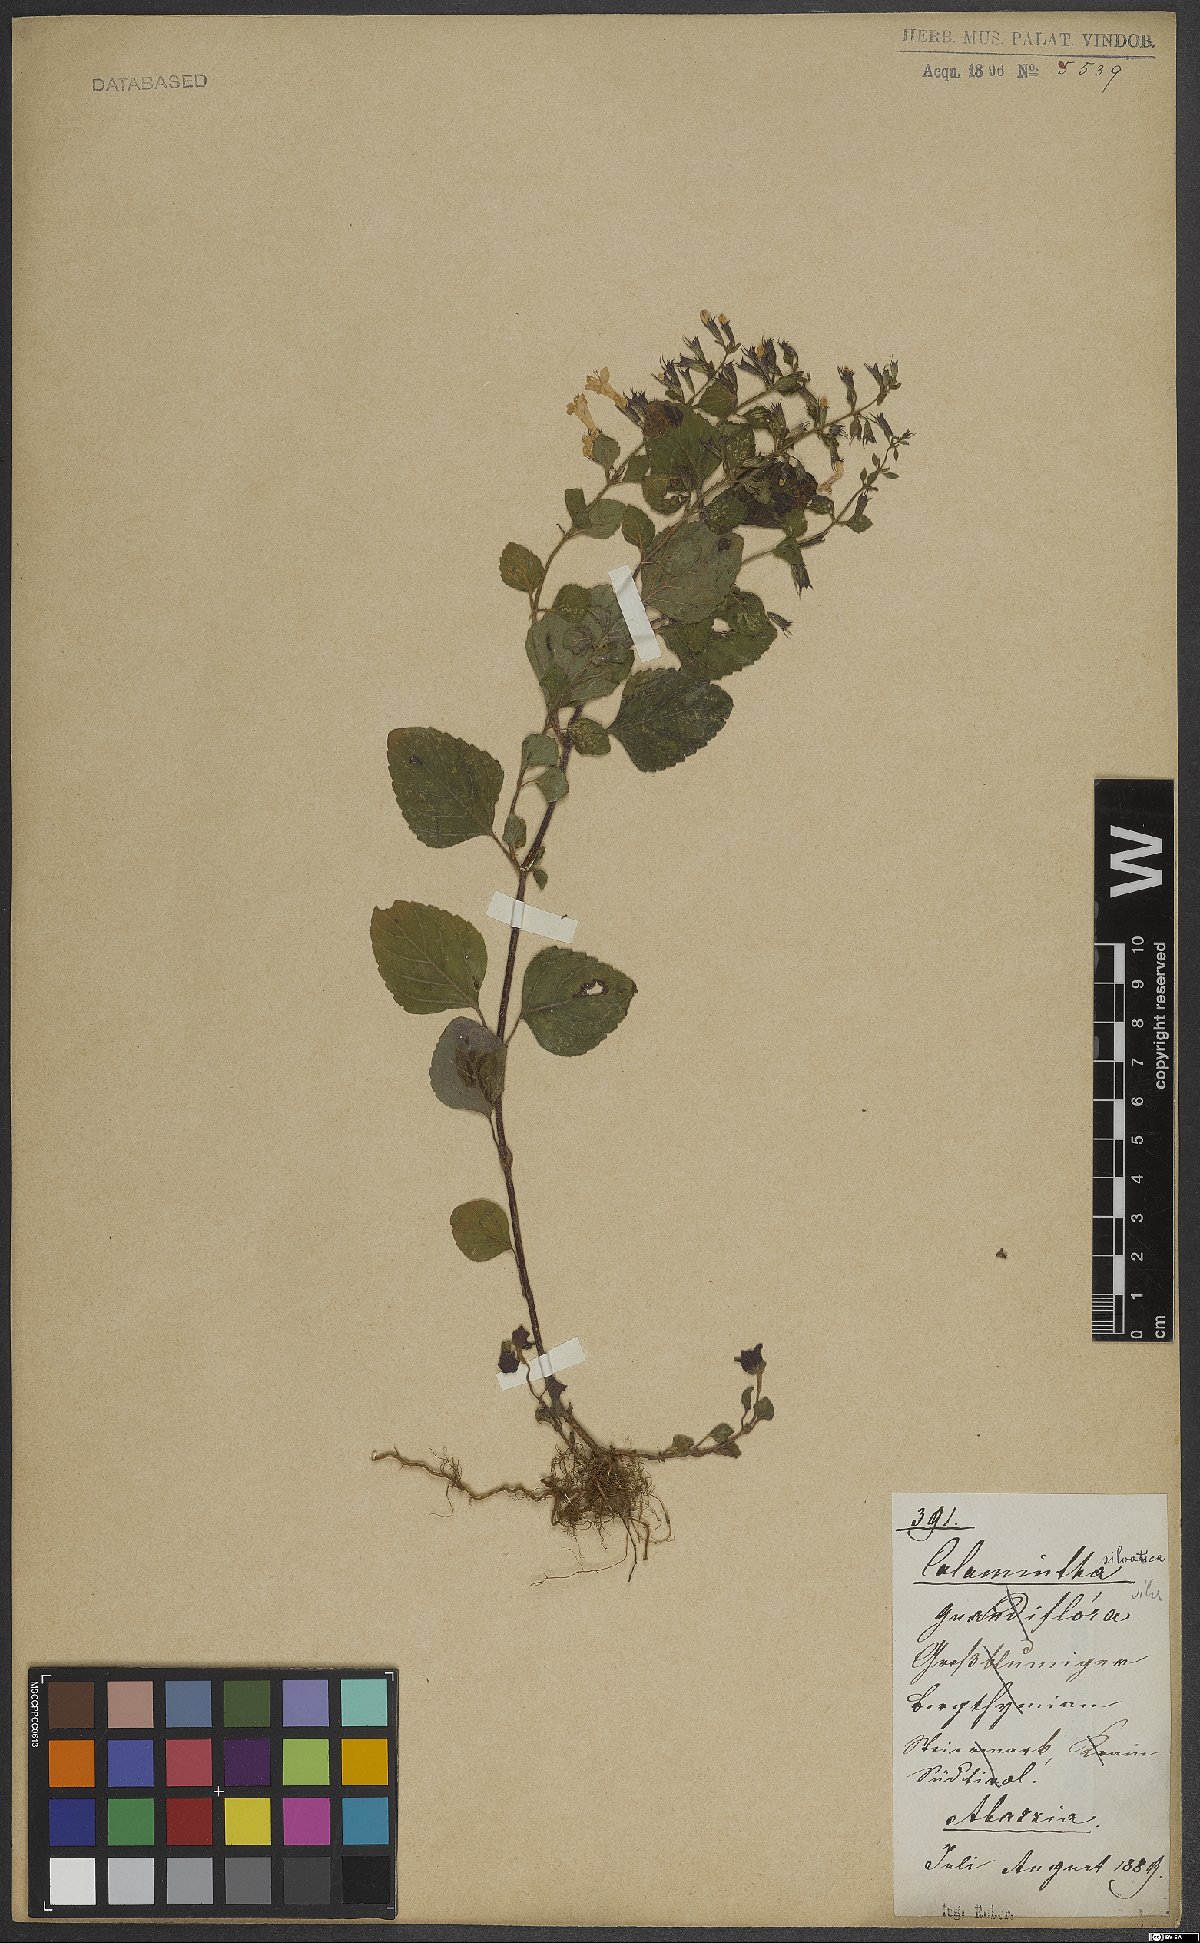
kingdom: Plantae
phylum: Tracheophyta
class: Magnoliopsida
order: Lamiales
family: Lamiaceae
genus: Clinopodium
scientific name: Clinopodium menthifolium
